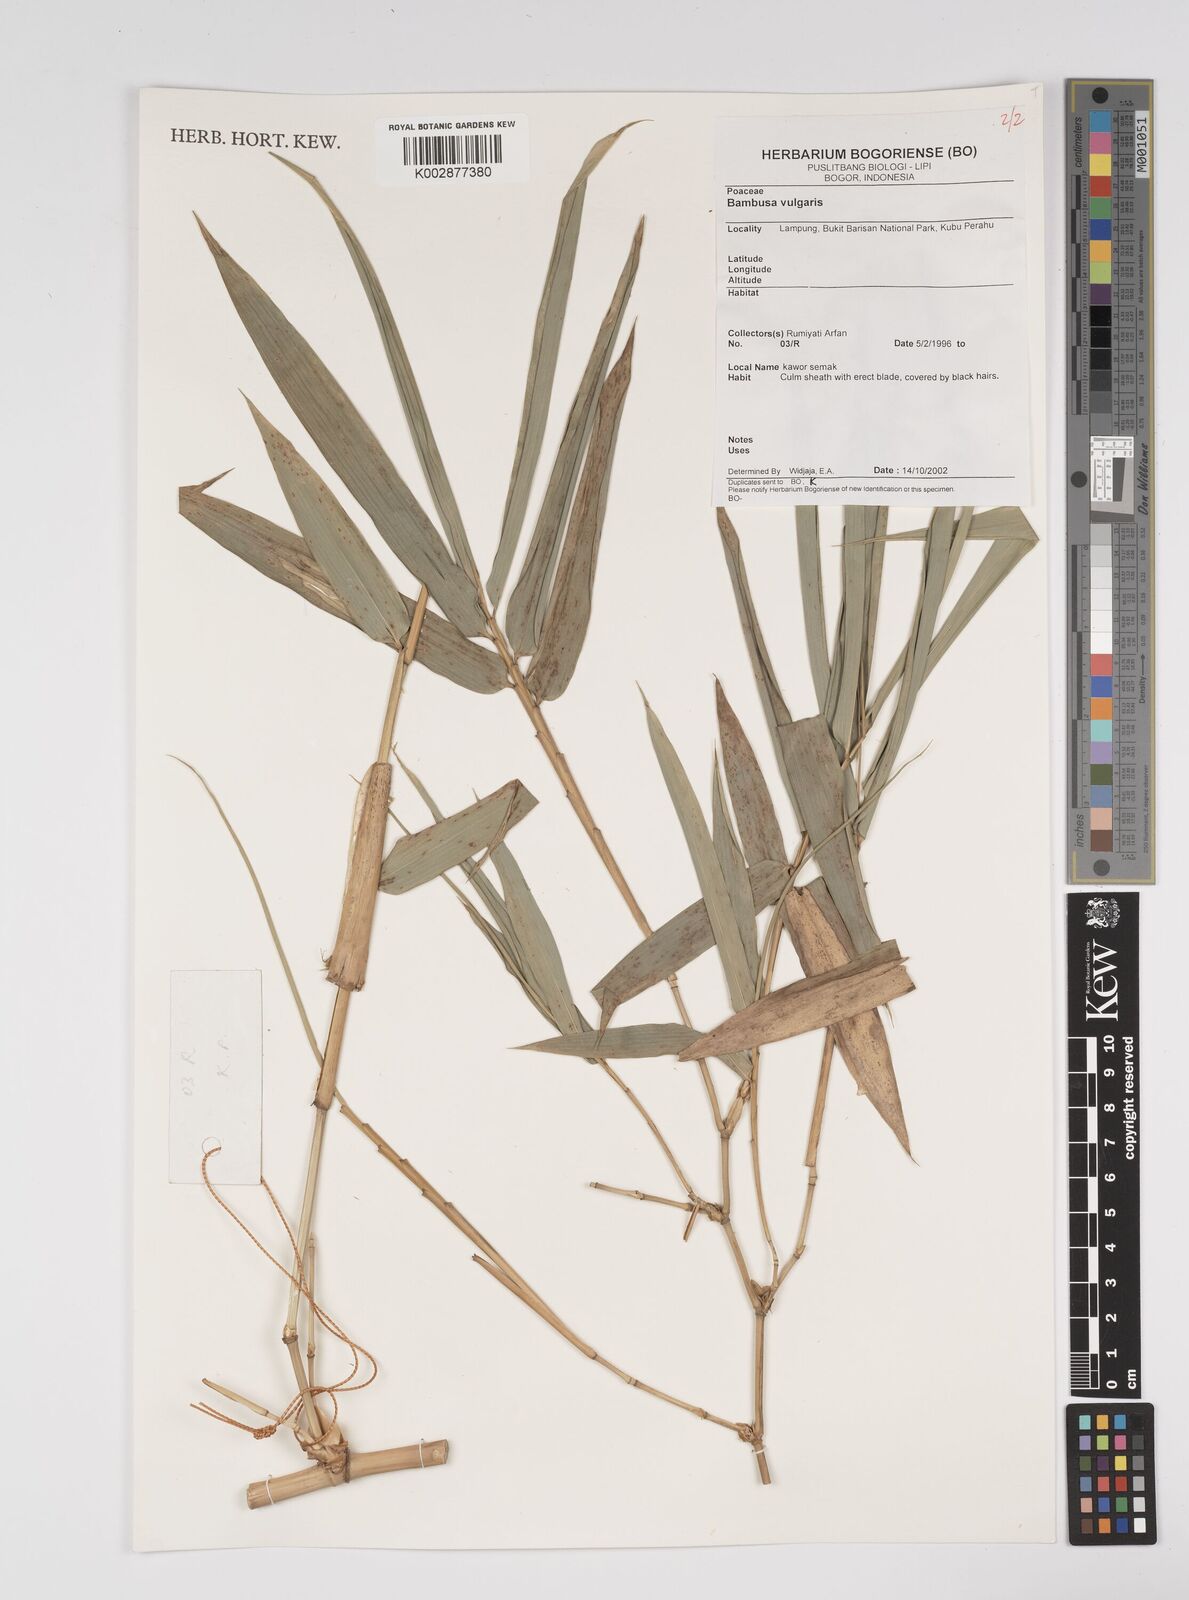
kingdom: Plantae
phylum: Tracheophyta
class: Liliopsida
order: Poales
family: Poaceae
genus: Bambusa
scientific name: Bambusa
